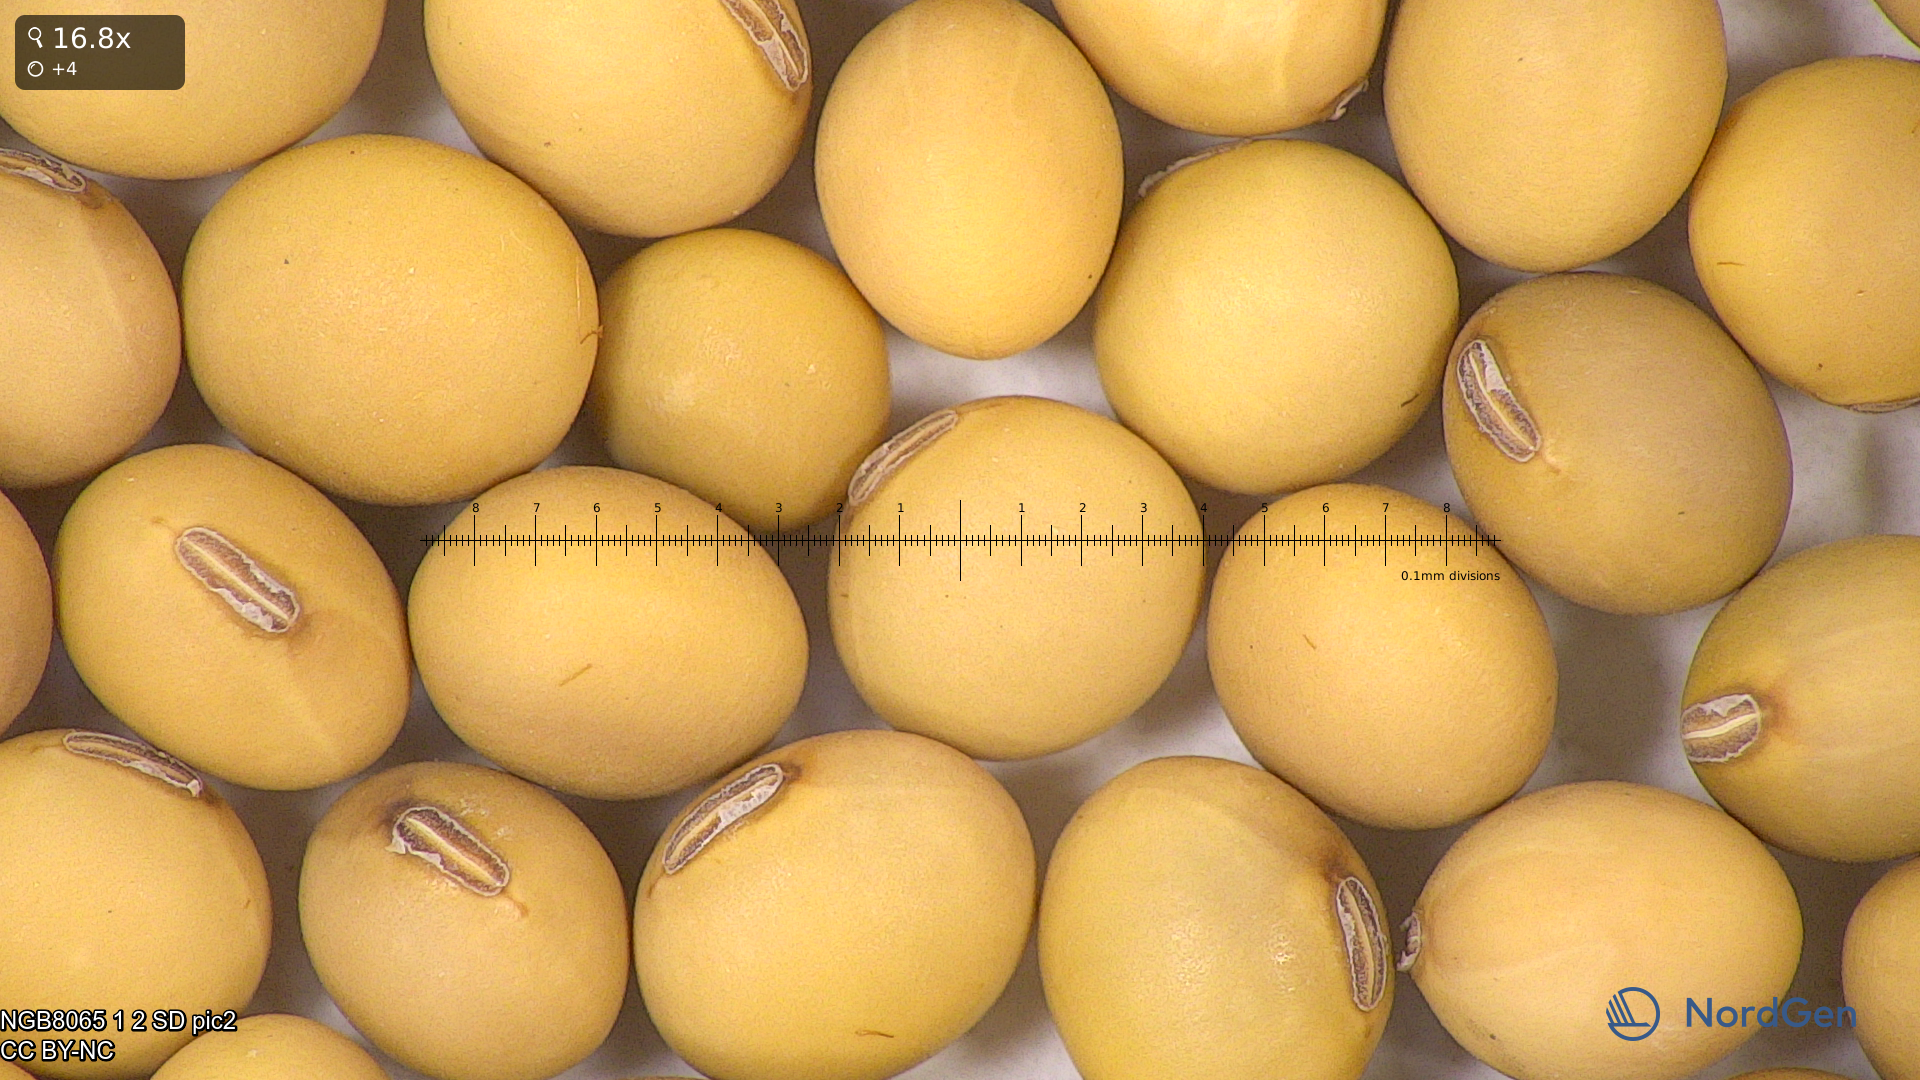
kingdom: Plantae
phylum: Tracheophyta
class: Magnoliopsida
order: Fabales
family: Fabaceae
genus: Glycine
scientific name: Glycine max
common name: Soya-bean
